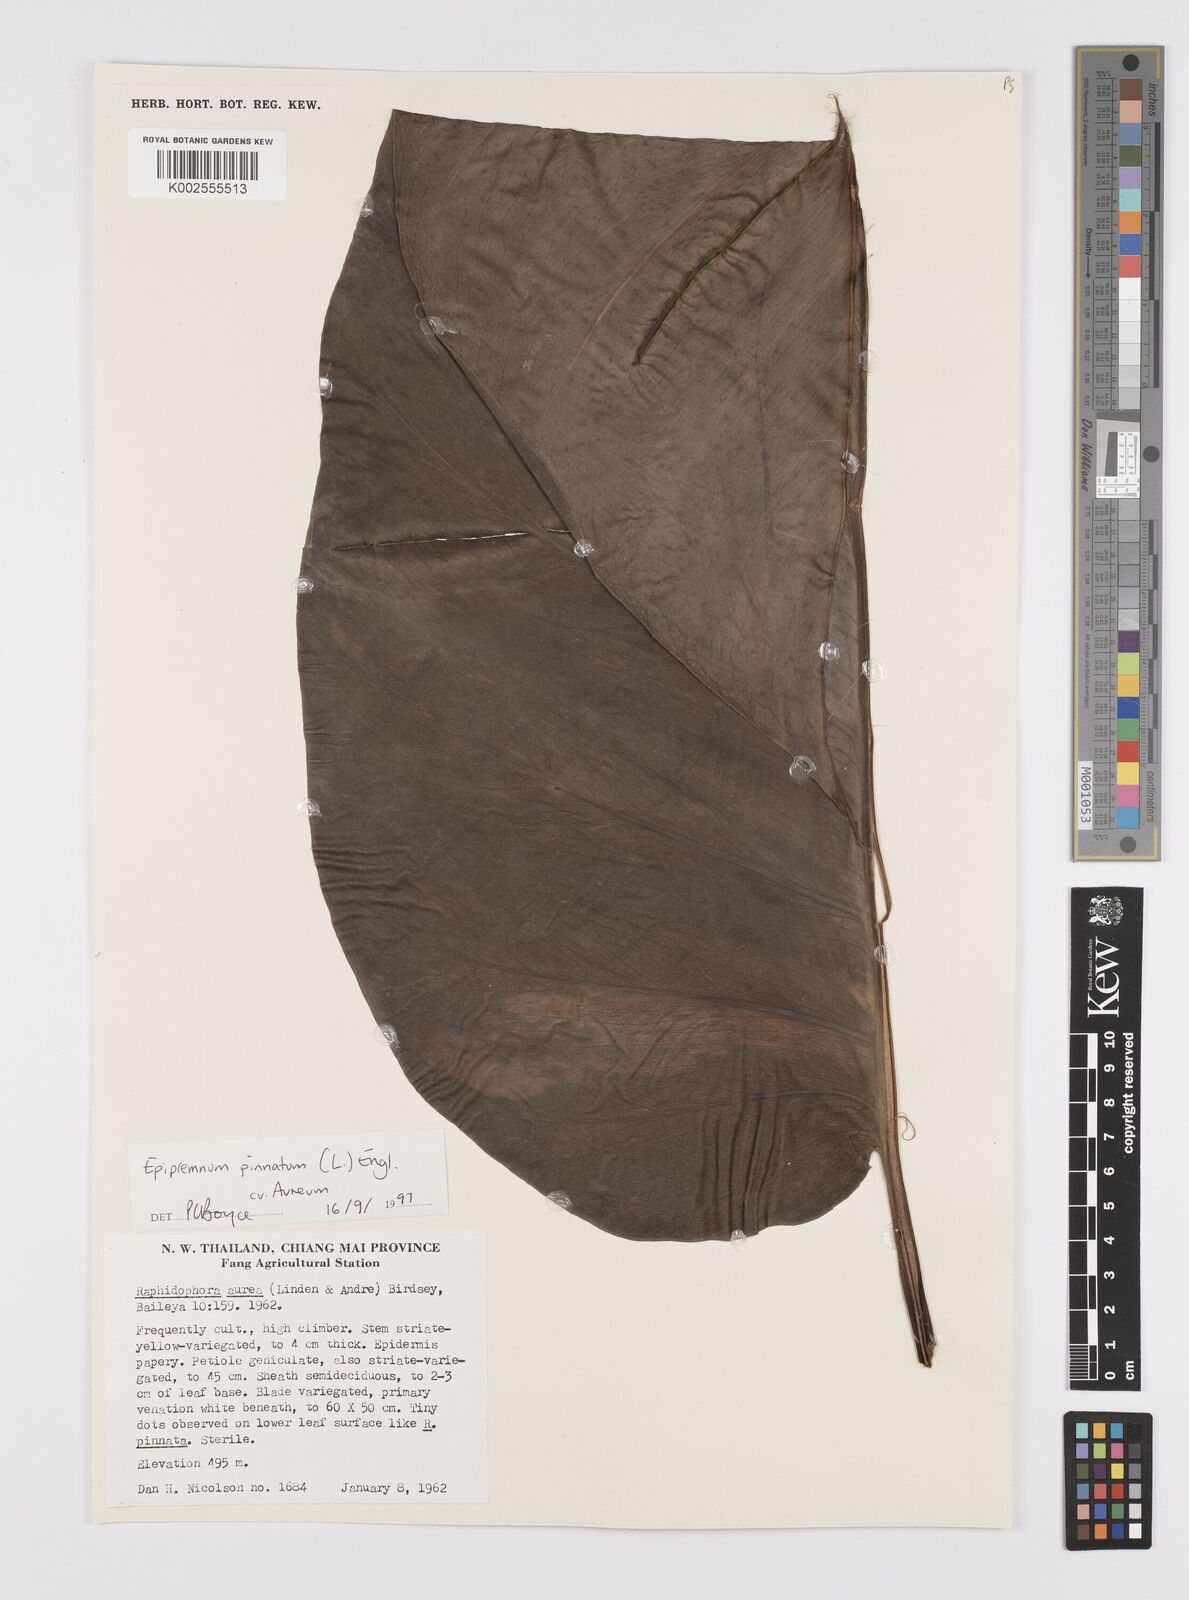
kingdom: Plantae
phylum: Tracheophyta
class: Liliopsida
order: Alismatales
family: Araceae
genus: Epipremnum
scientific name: Epipremnum aureum
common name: Golden hunter's-robe
